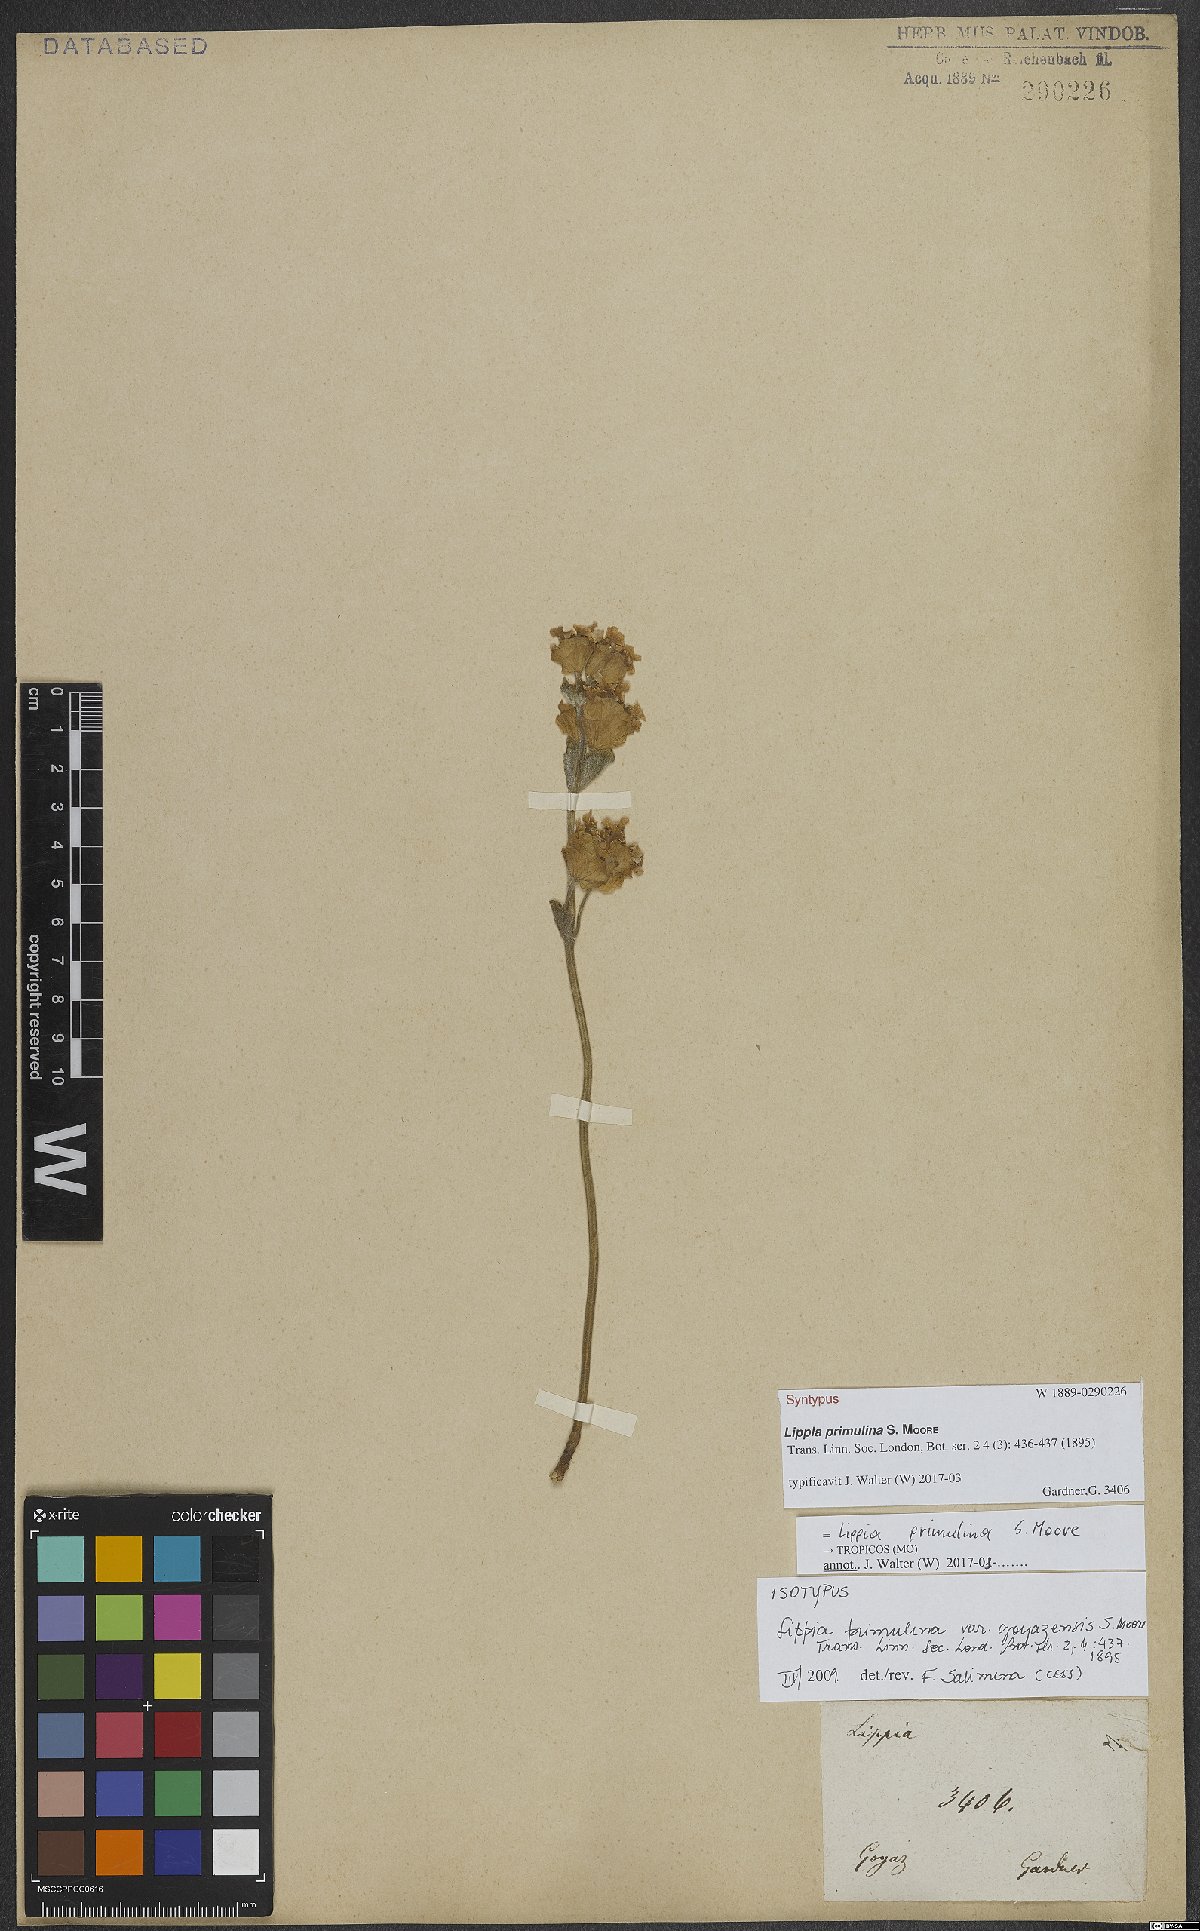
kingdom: Plantae
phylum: Tracheophyta
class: Magnoliopsida
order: Lamiales
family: Verbenaceae
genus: Lippia
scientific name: Lippia primulina
